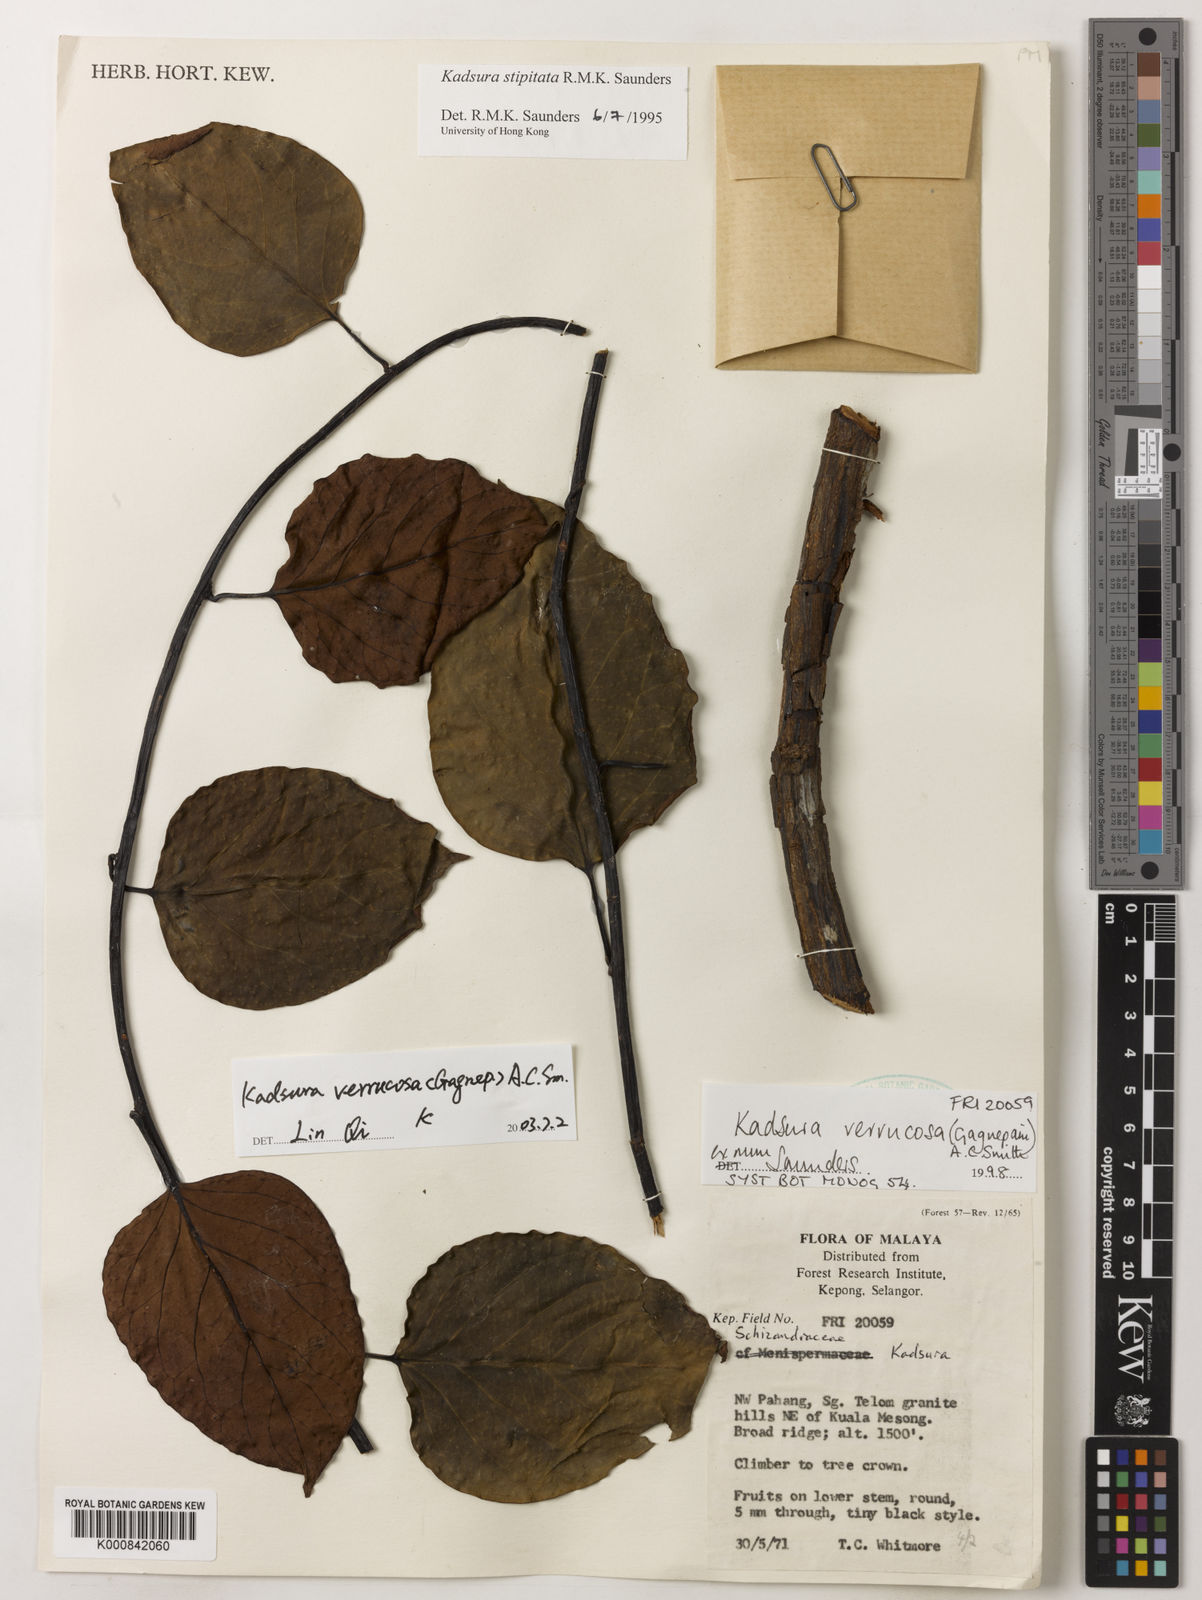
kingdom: Plantae
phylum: Tracheophyta
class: Magnoliopsida
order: Austrobaileyales
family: Schisandraceae
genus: Kadsura
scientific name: Kadsura verrucosa
